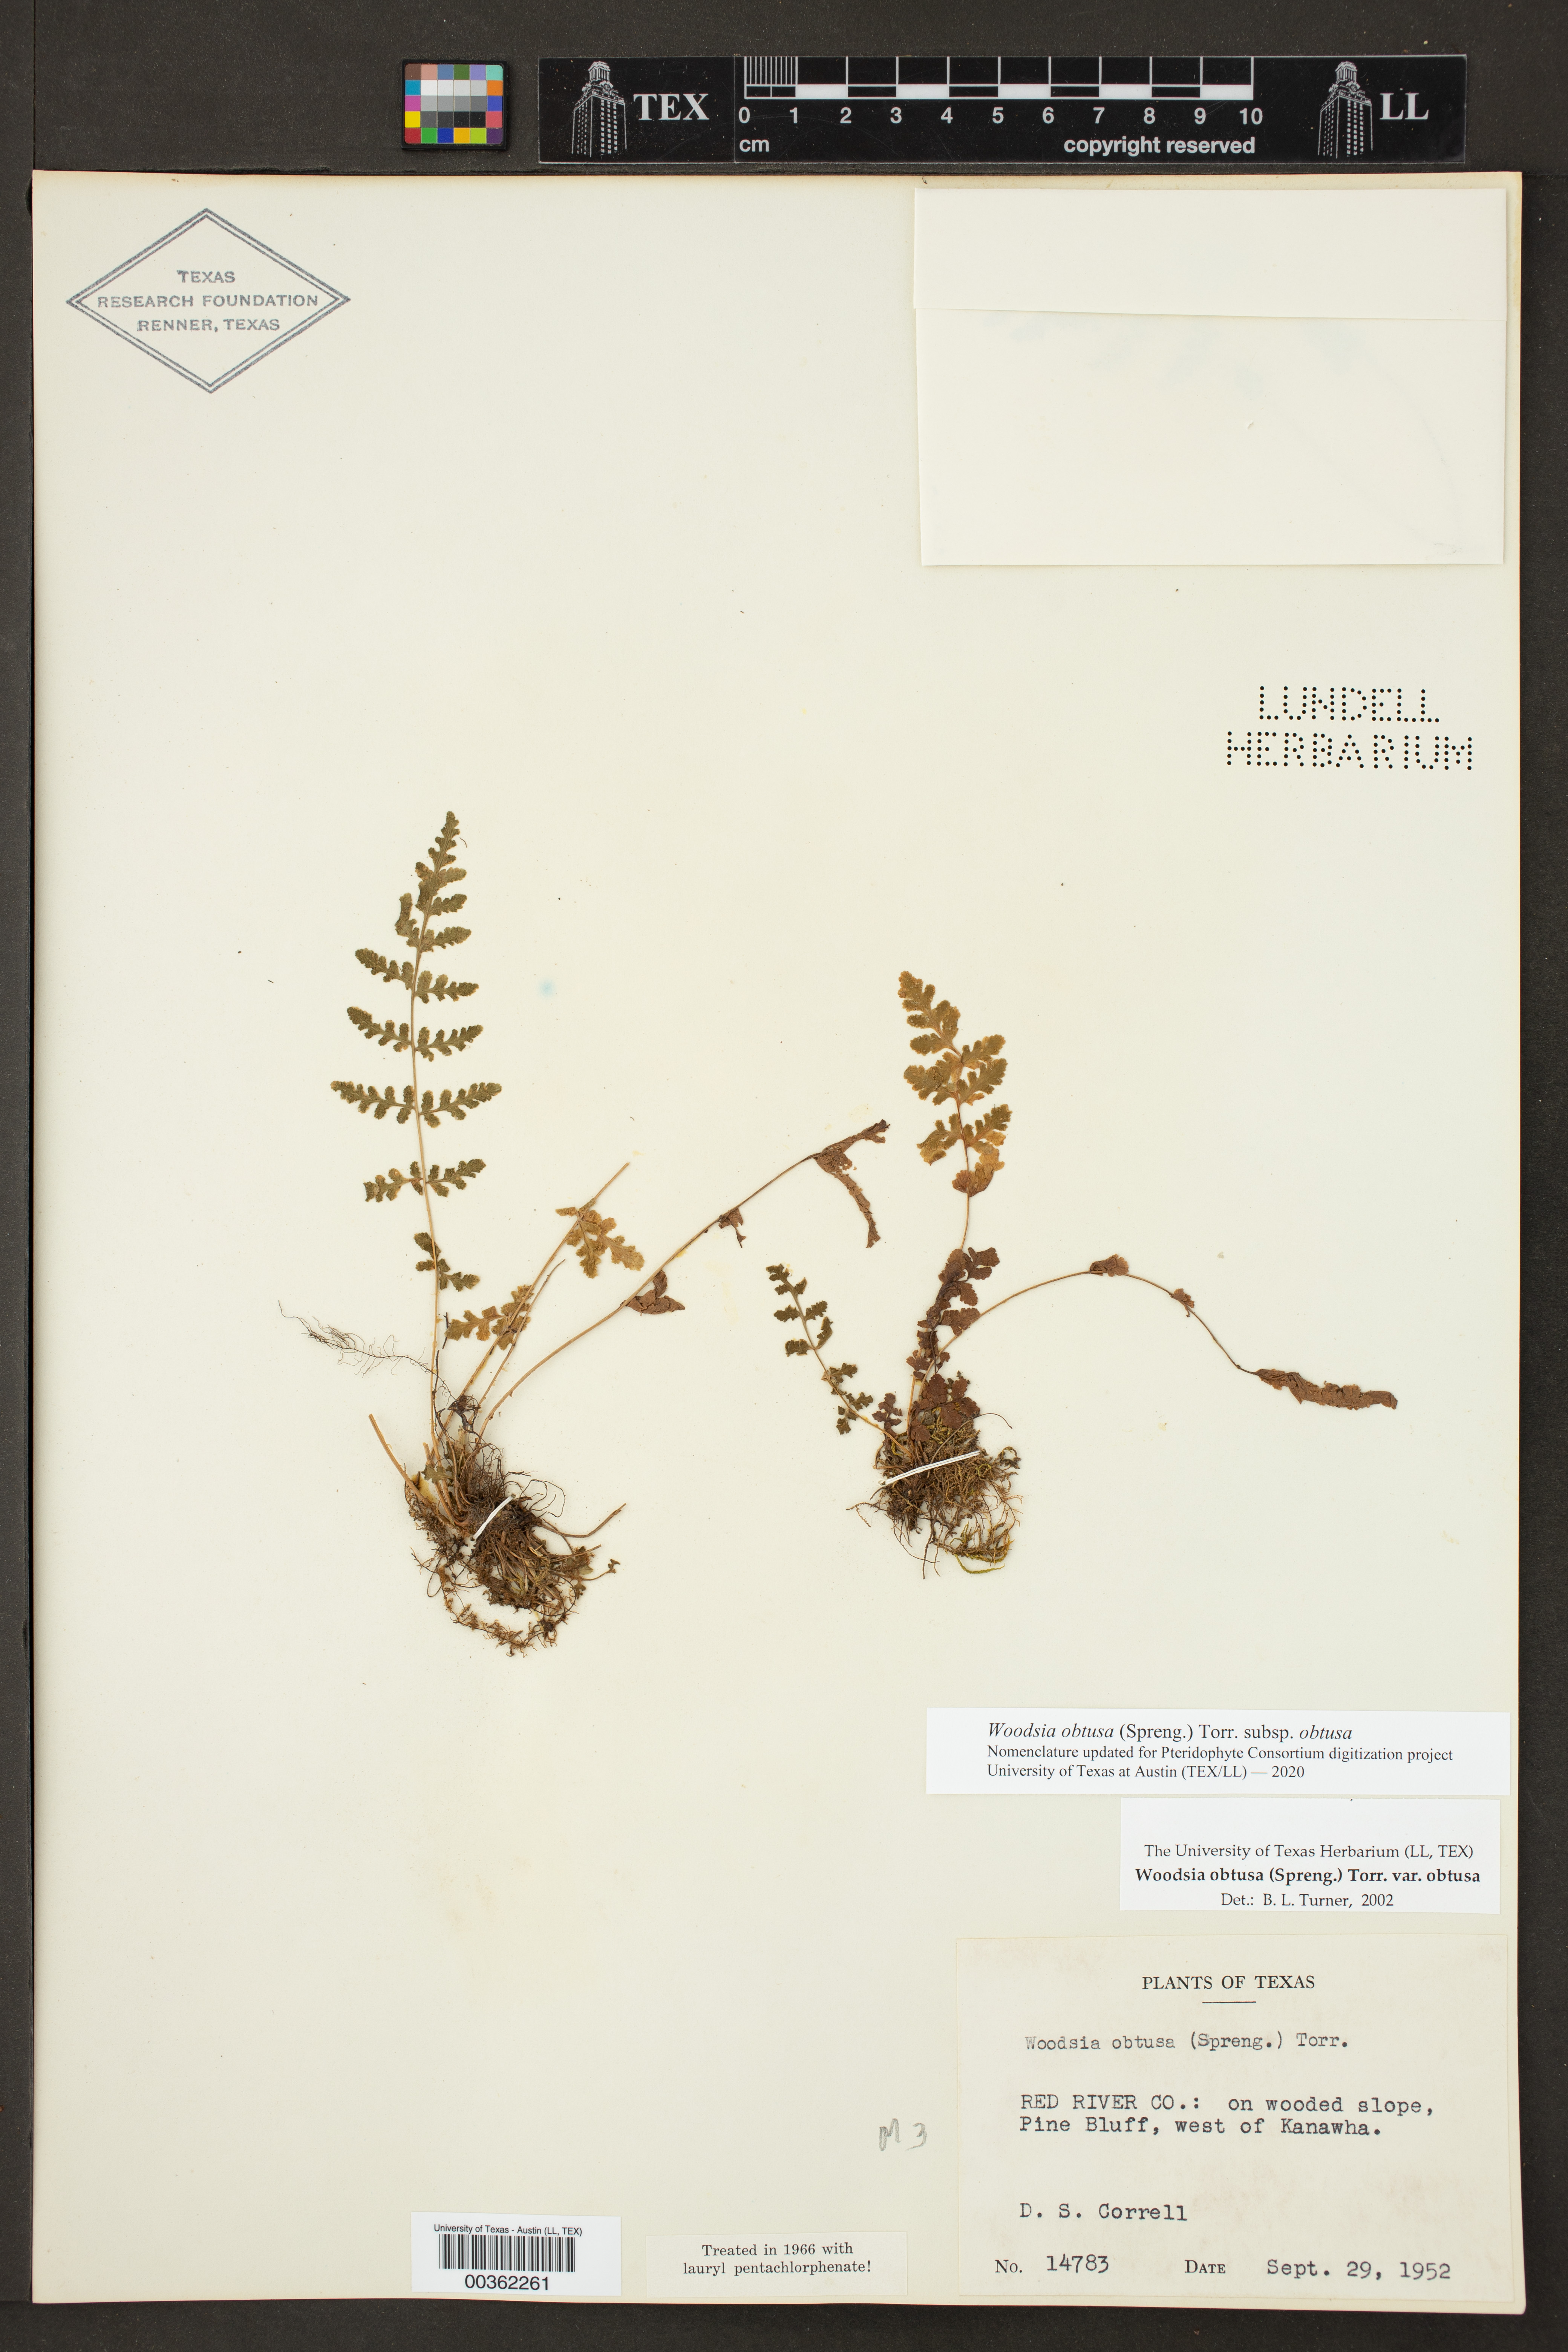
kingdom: Plantae
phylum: Tracheophyta
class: Polypodiopsida
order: Polypodiales
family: Woodsiaceae
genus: Physematium
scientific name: Physematium obtusum
